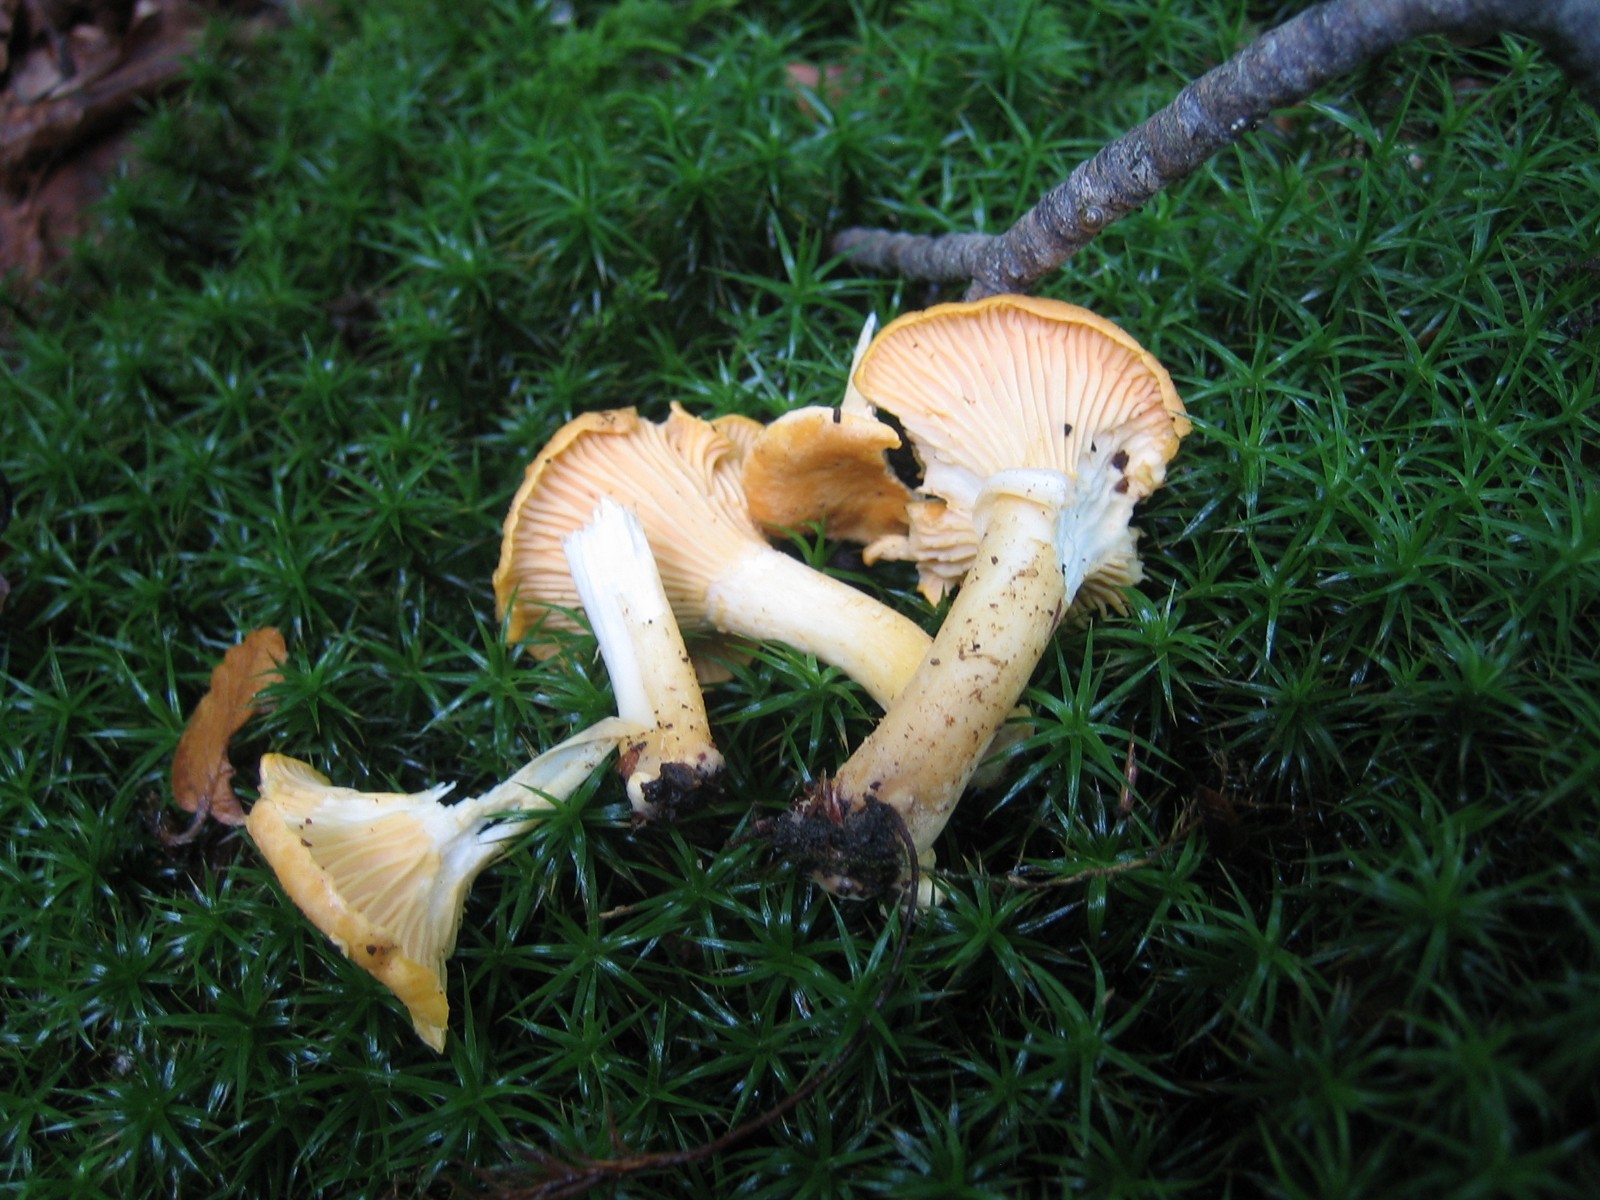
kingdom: Fungi
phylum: Basidiomycota
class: Agaricomycetes
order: Cantharellales
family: Hydnaceae
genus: Cantharellus
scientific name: Cantharellus cibarius
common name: almindelig kantarel
